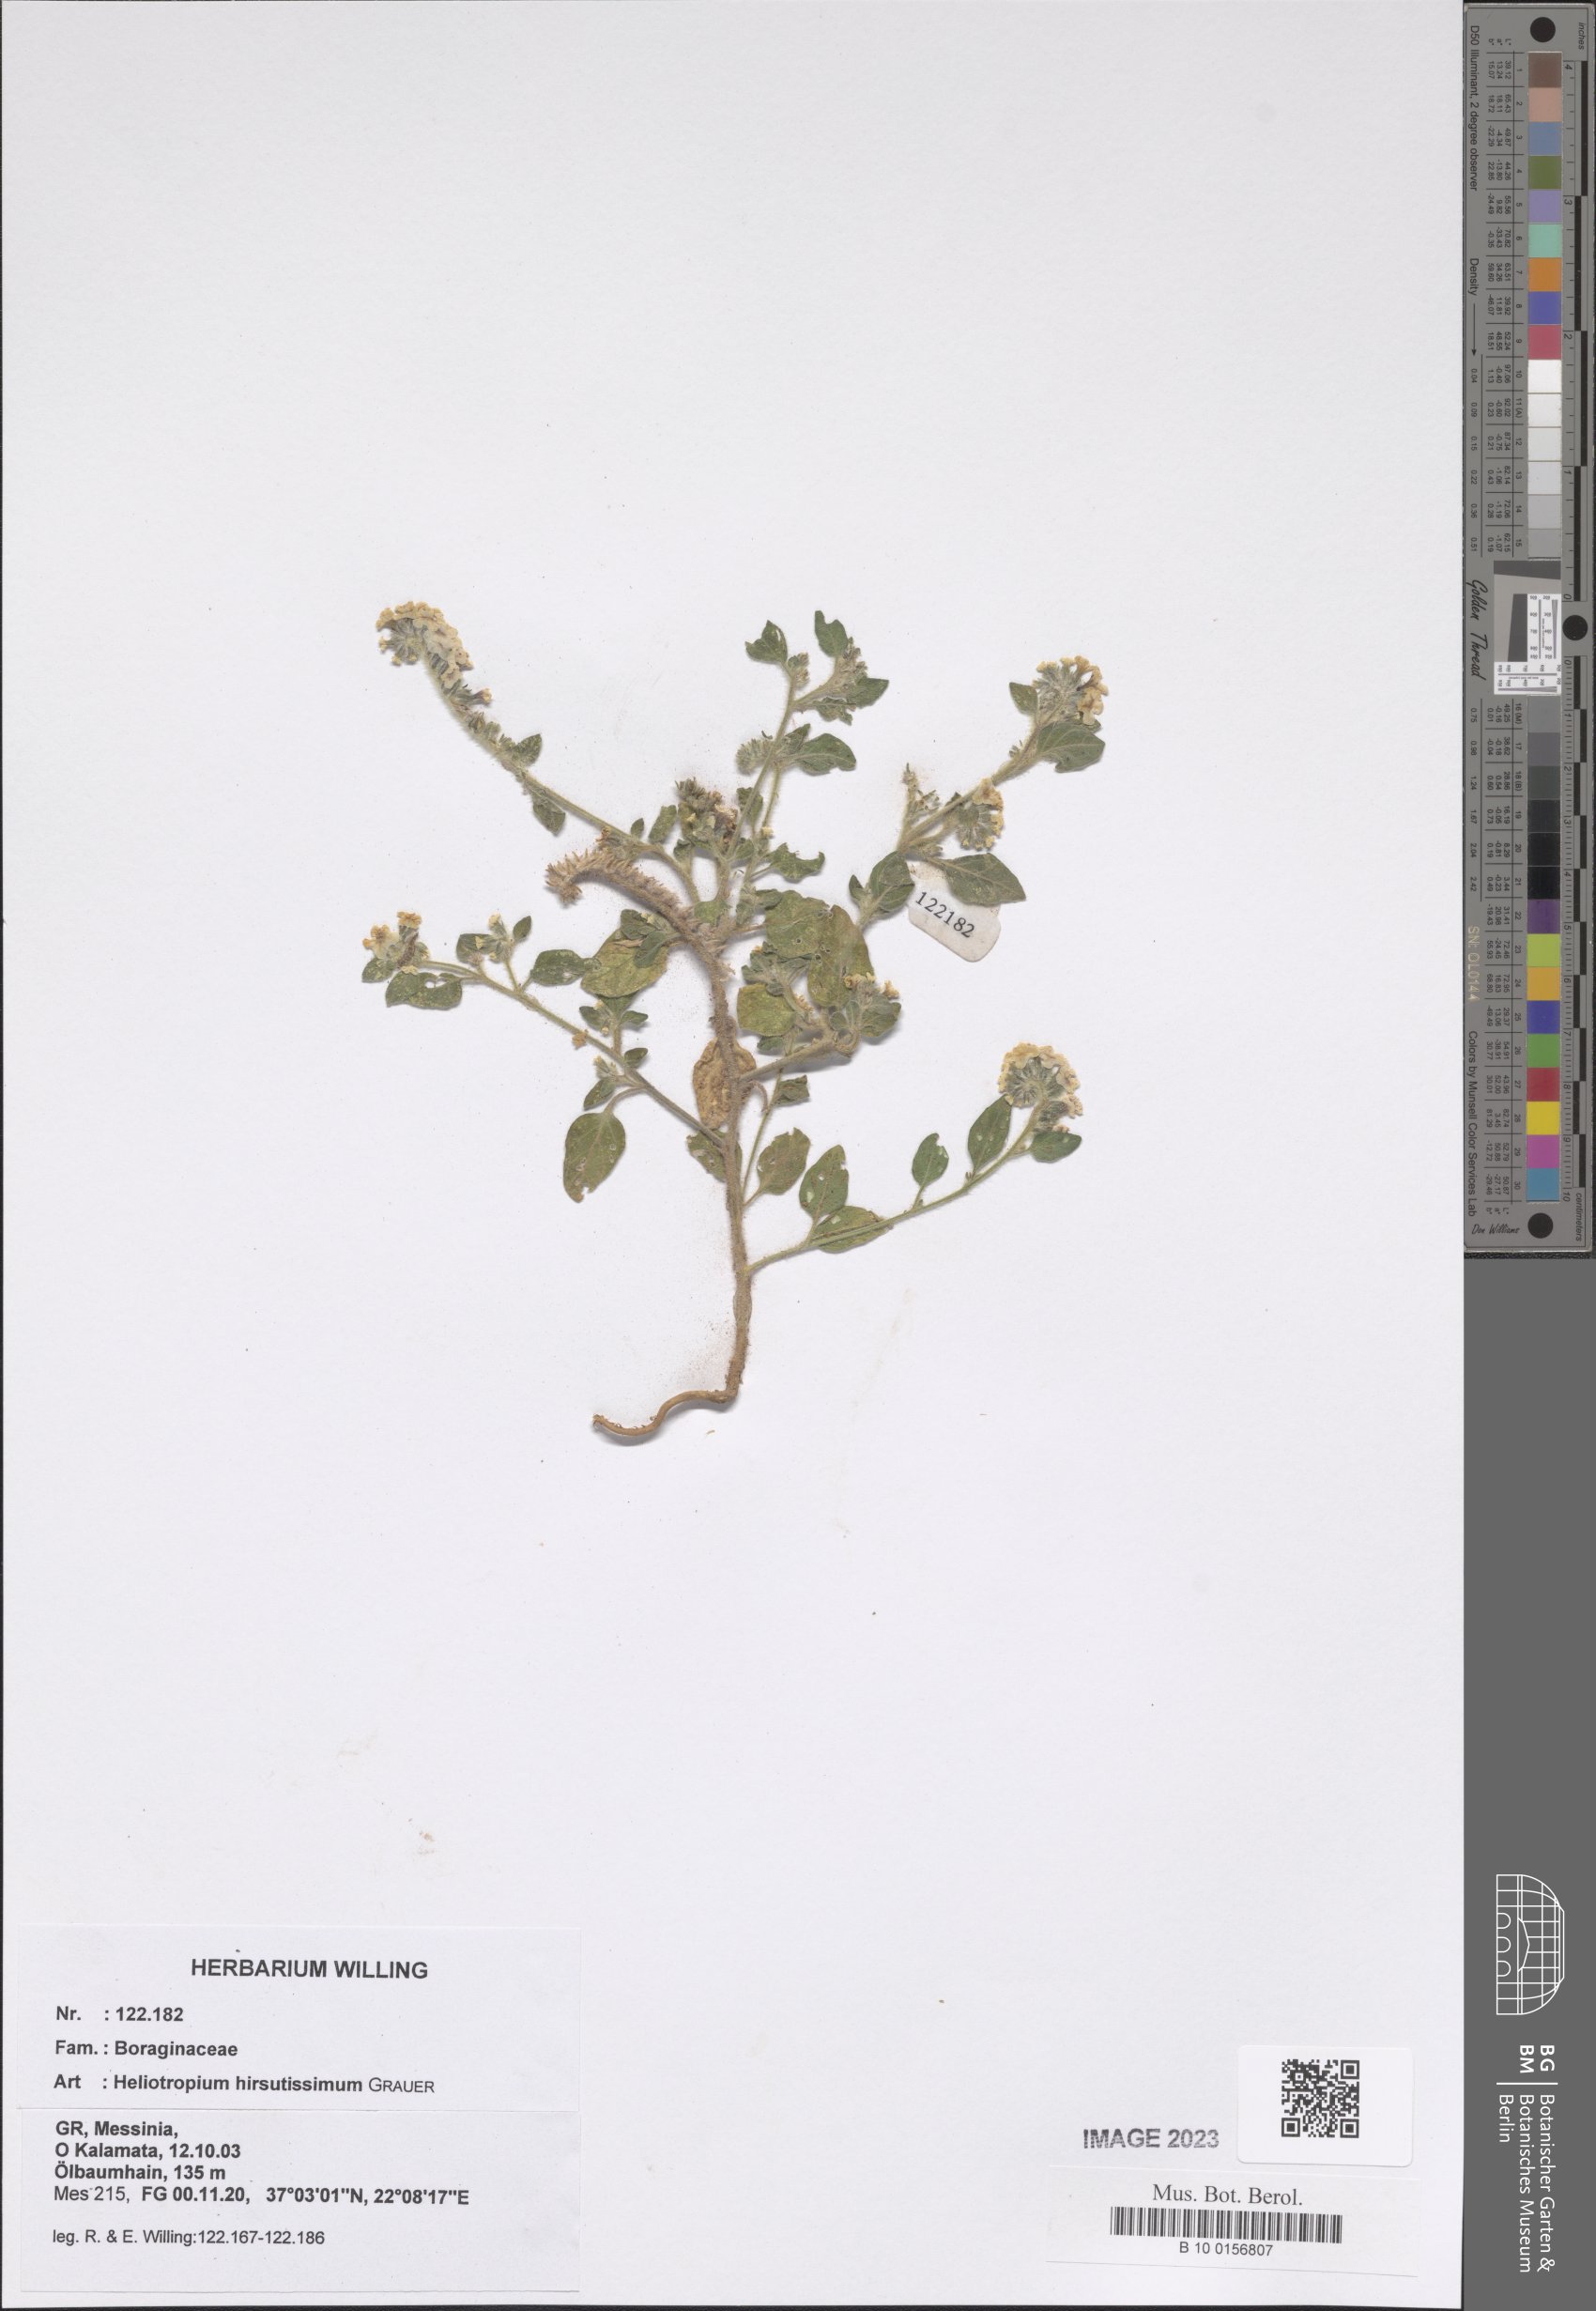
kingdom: Plantae
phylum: Tracheophyta
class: Magnoliopsida
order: Boraginales
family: Heliotropiaceae
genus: Heliotropium
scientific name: Heliotropium hirsutissimum
